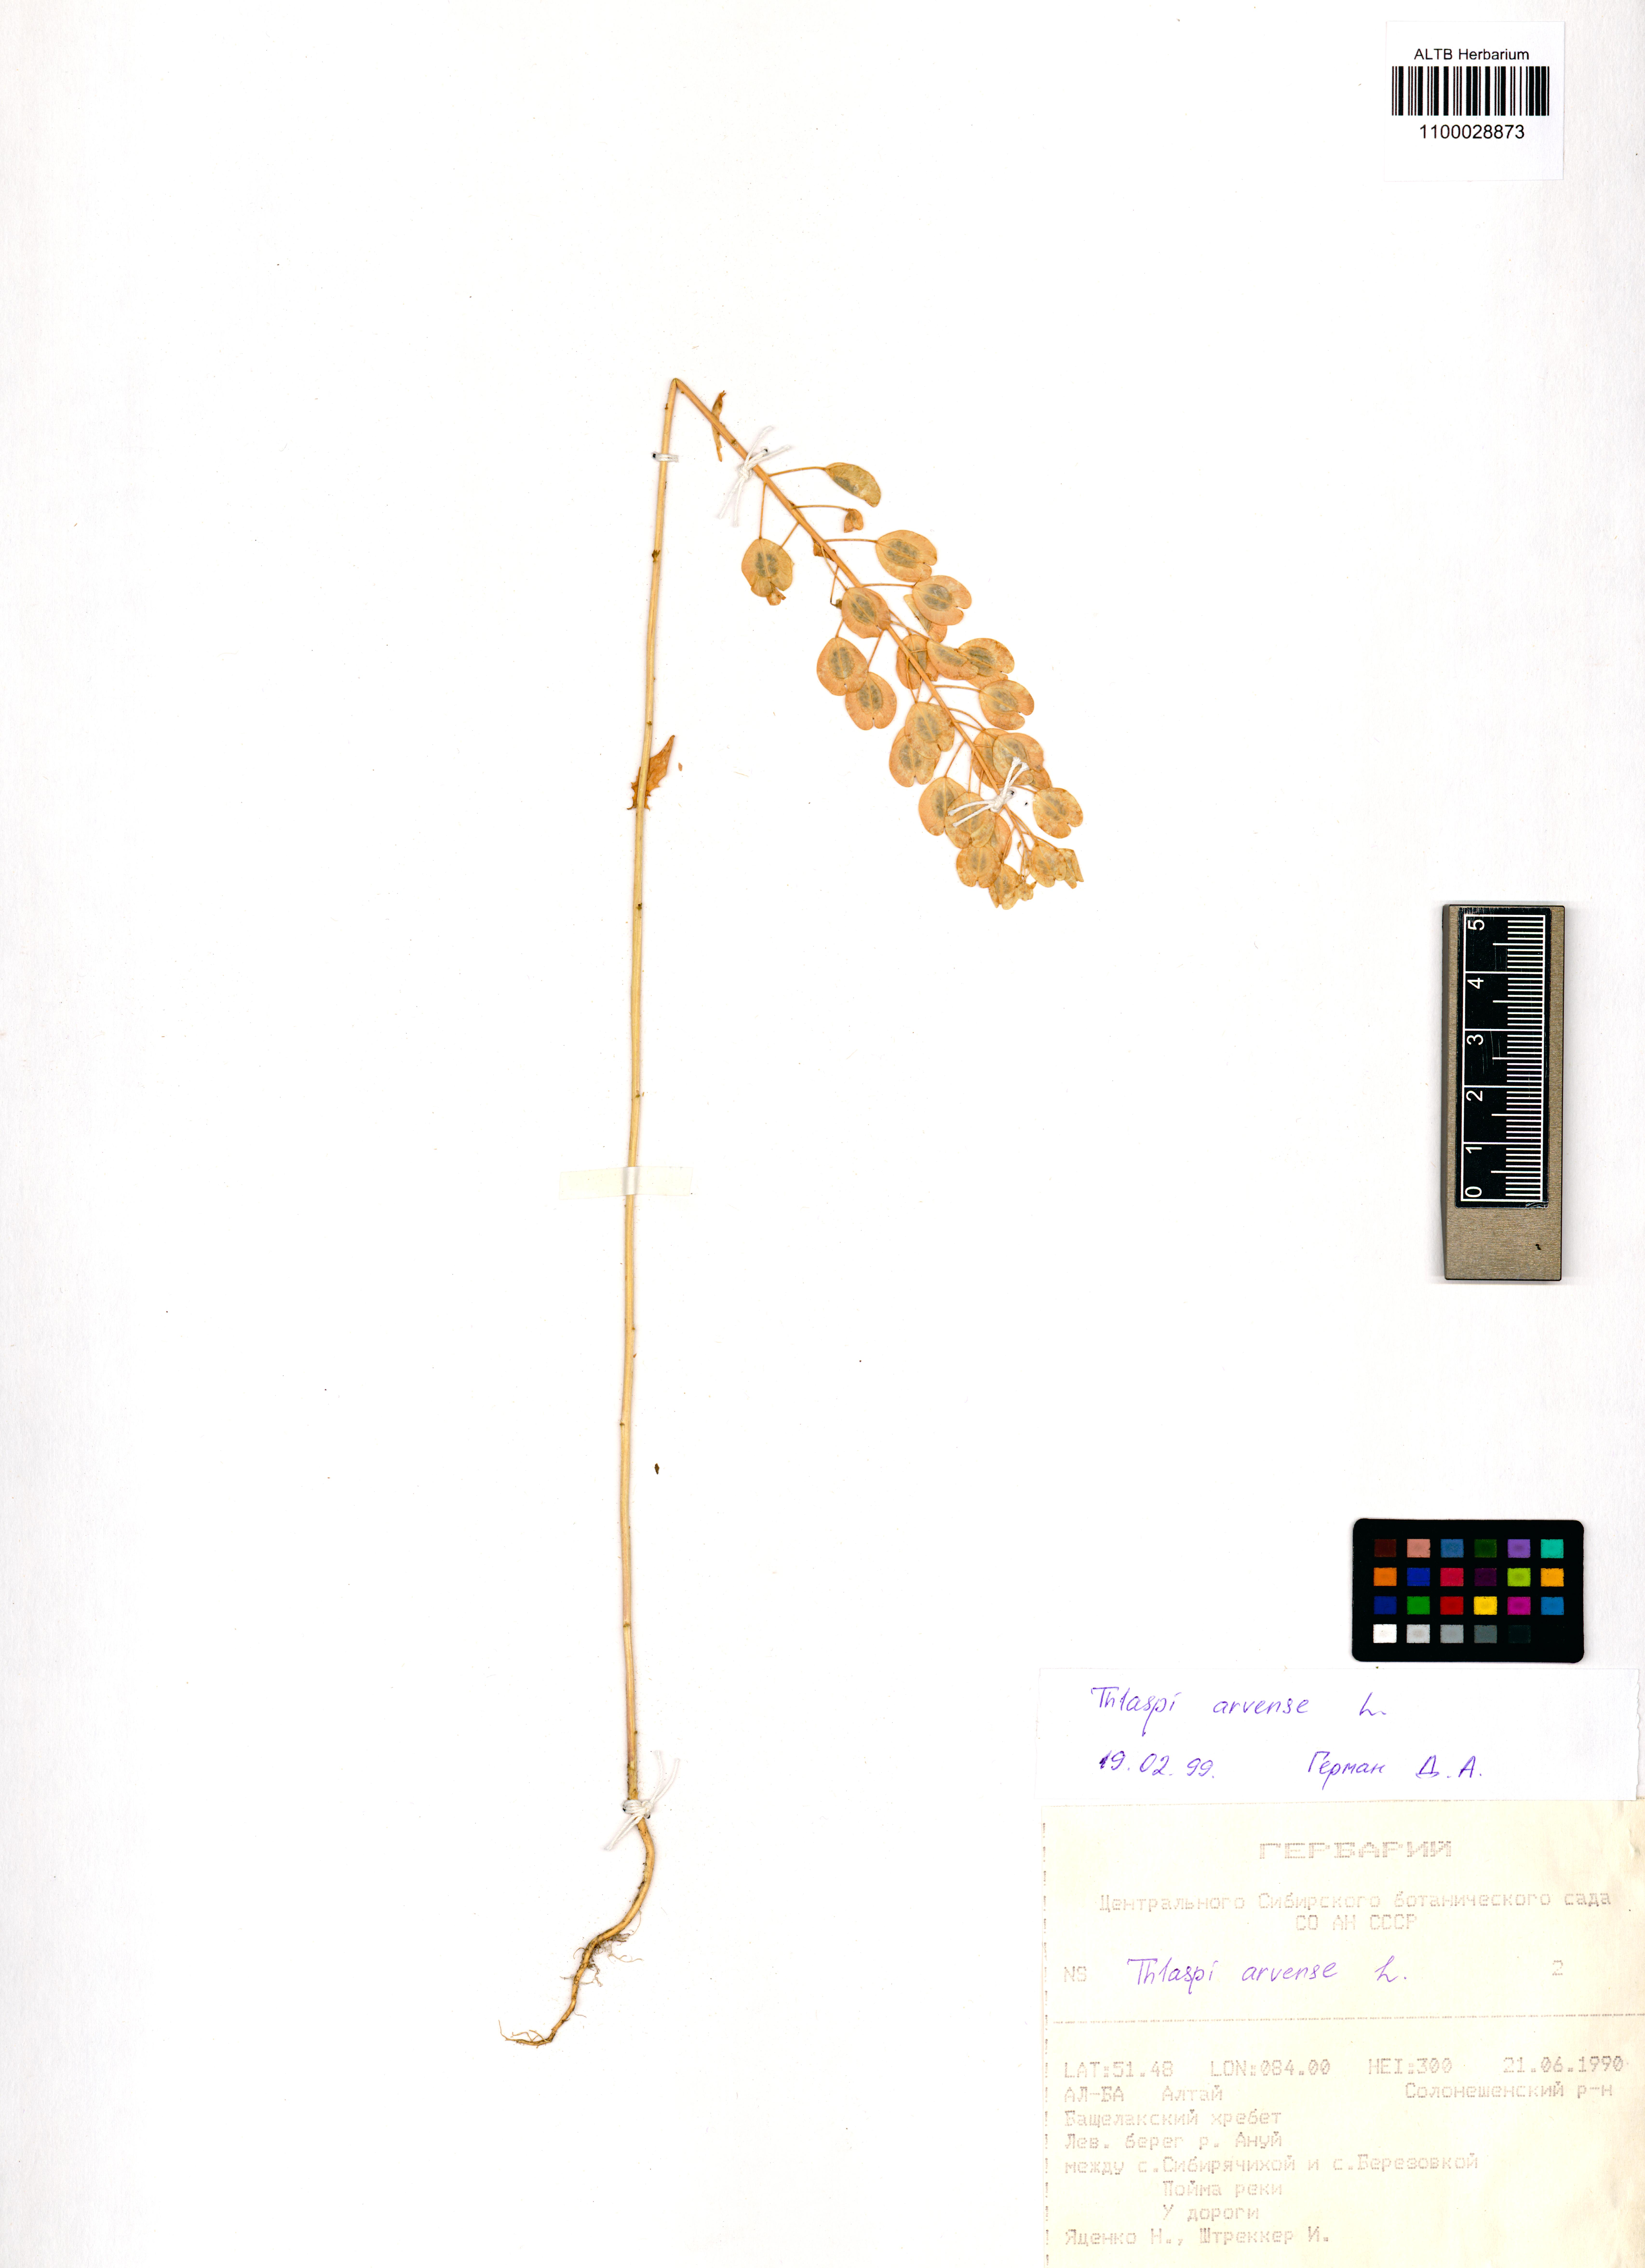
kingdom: Plantae
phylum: Tracheophyta
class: Magnoliopsida
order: Brassicales
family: Brassicaceae
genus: Thlaspi
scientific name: Thlaspi arvense
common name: Field pennycress
